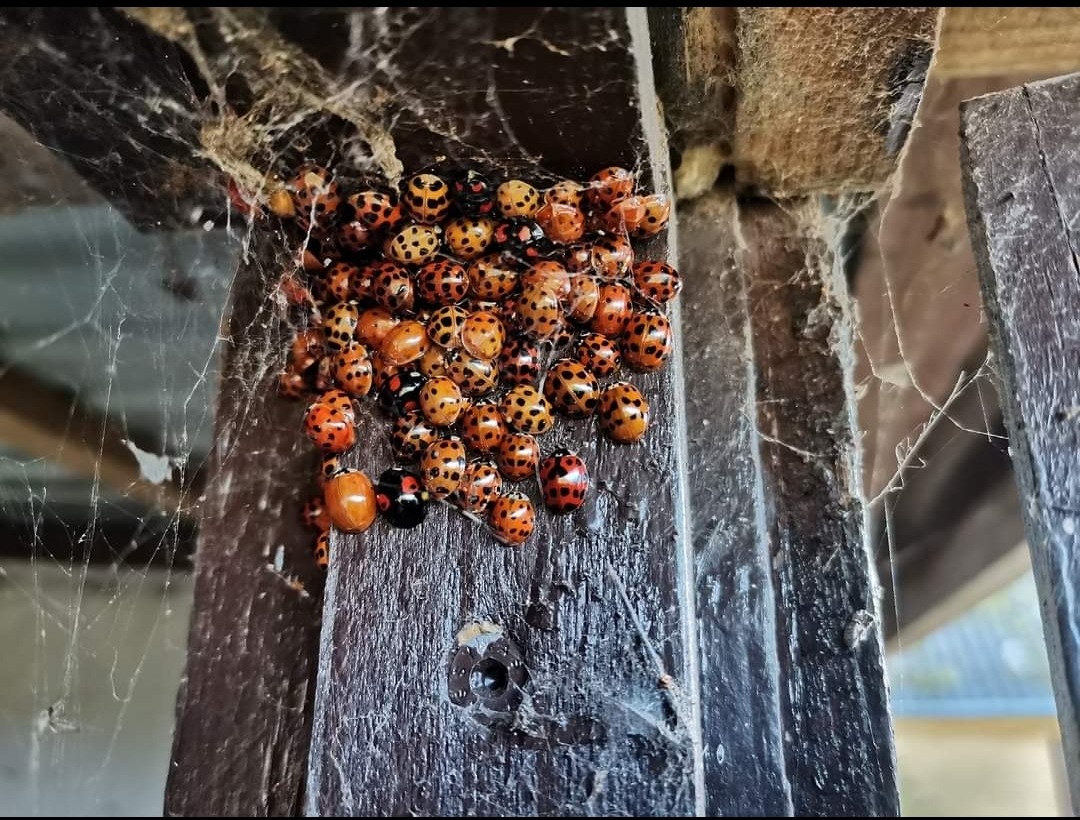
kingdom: Animalia
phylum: Arthropoda
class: Insecta
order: Coleoptera
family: Coccinellidae
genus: Harmonia
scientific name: Harmonia axyridis
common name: Harlekinmariehøne
